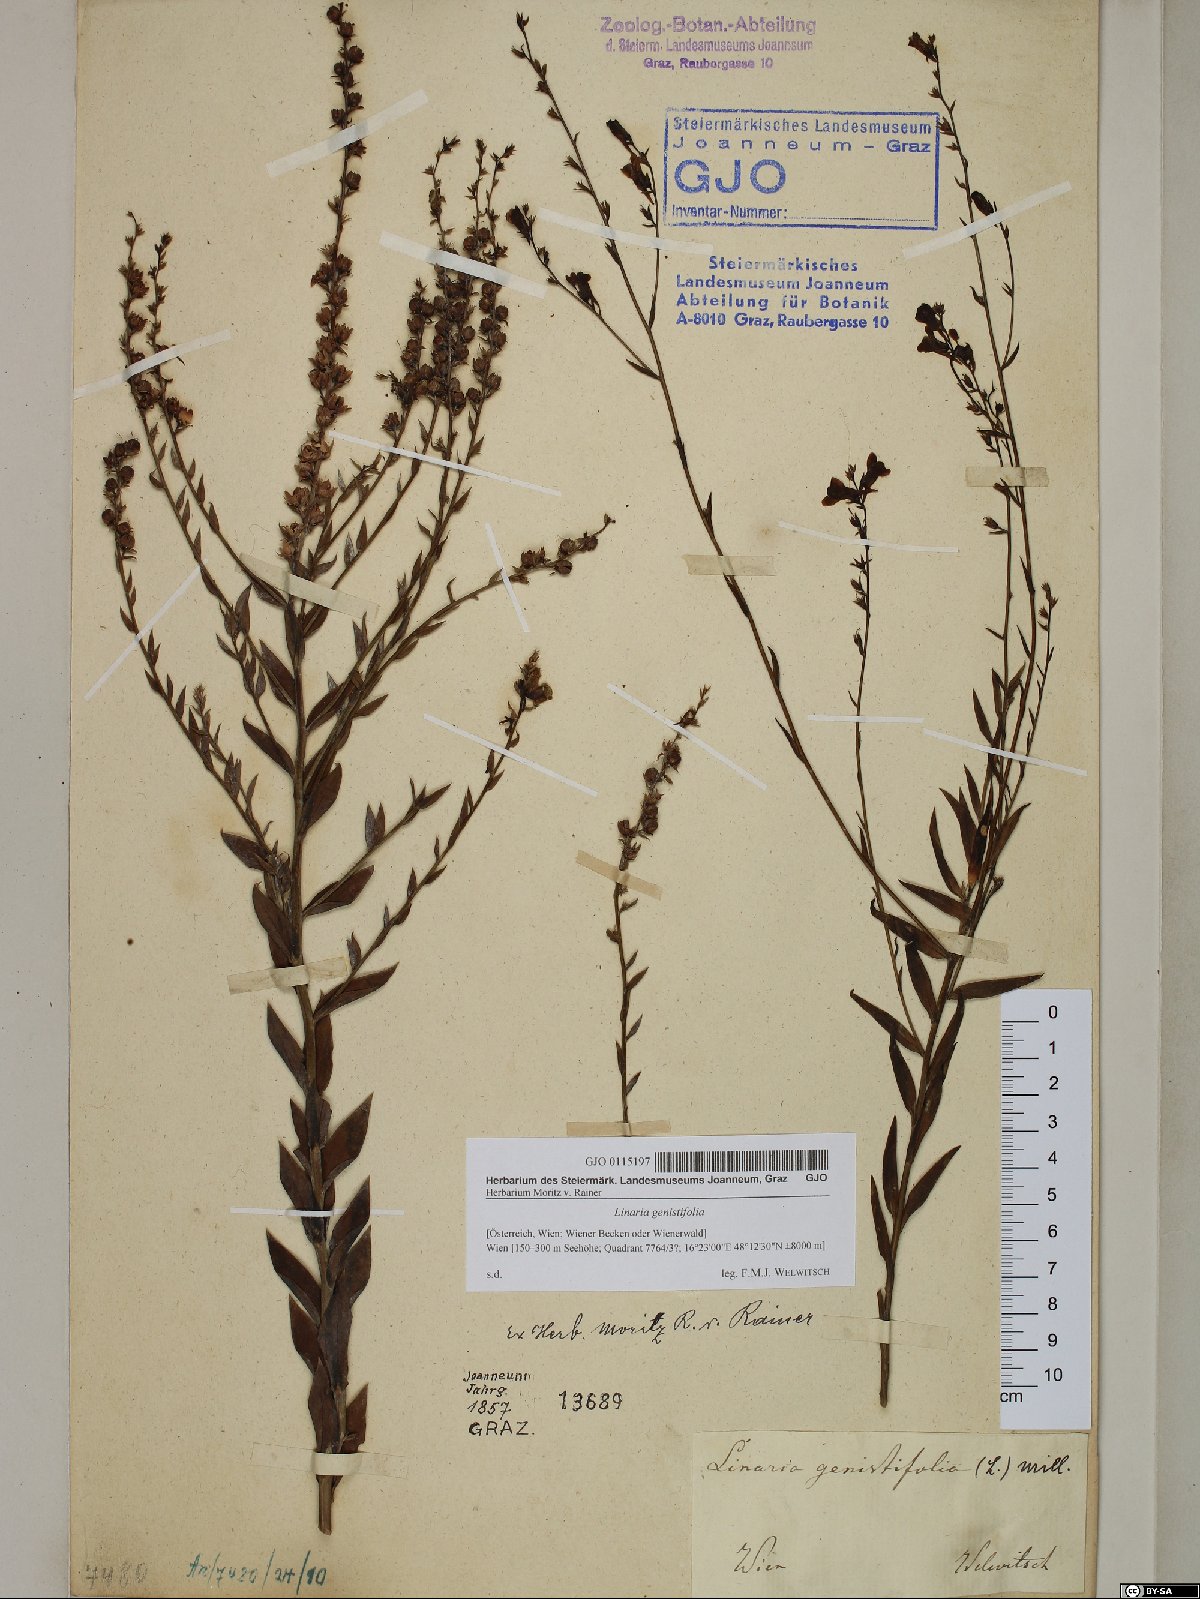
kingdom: Plantae
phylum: Tracheophyta
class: Magnoliopsida
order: Lamiales
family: Plantaginaceae
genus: Linaria
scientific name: Linaria genistifolia
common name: Broomleaf toadflax
